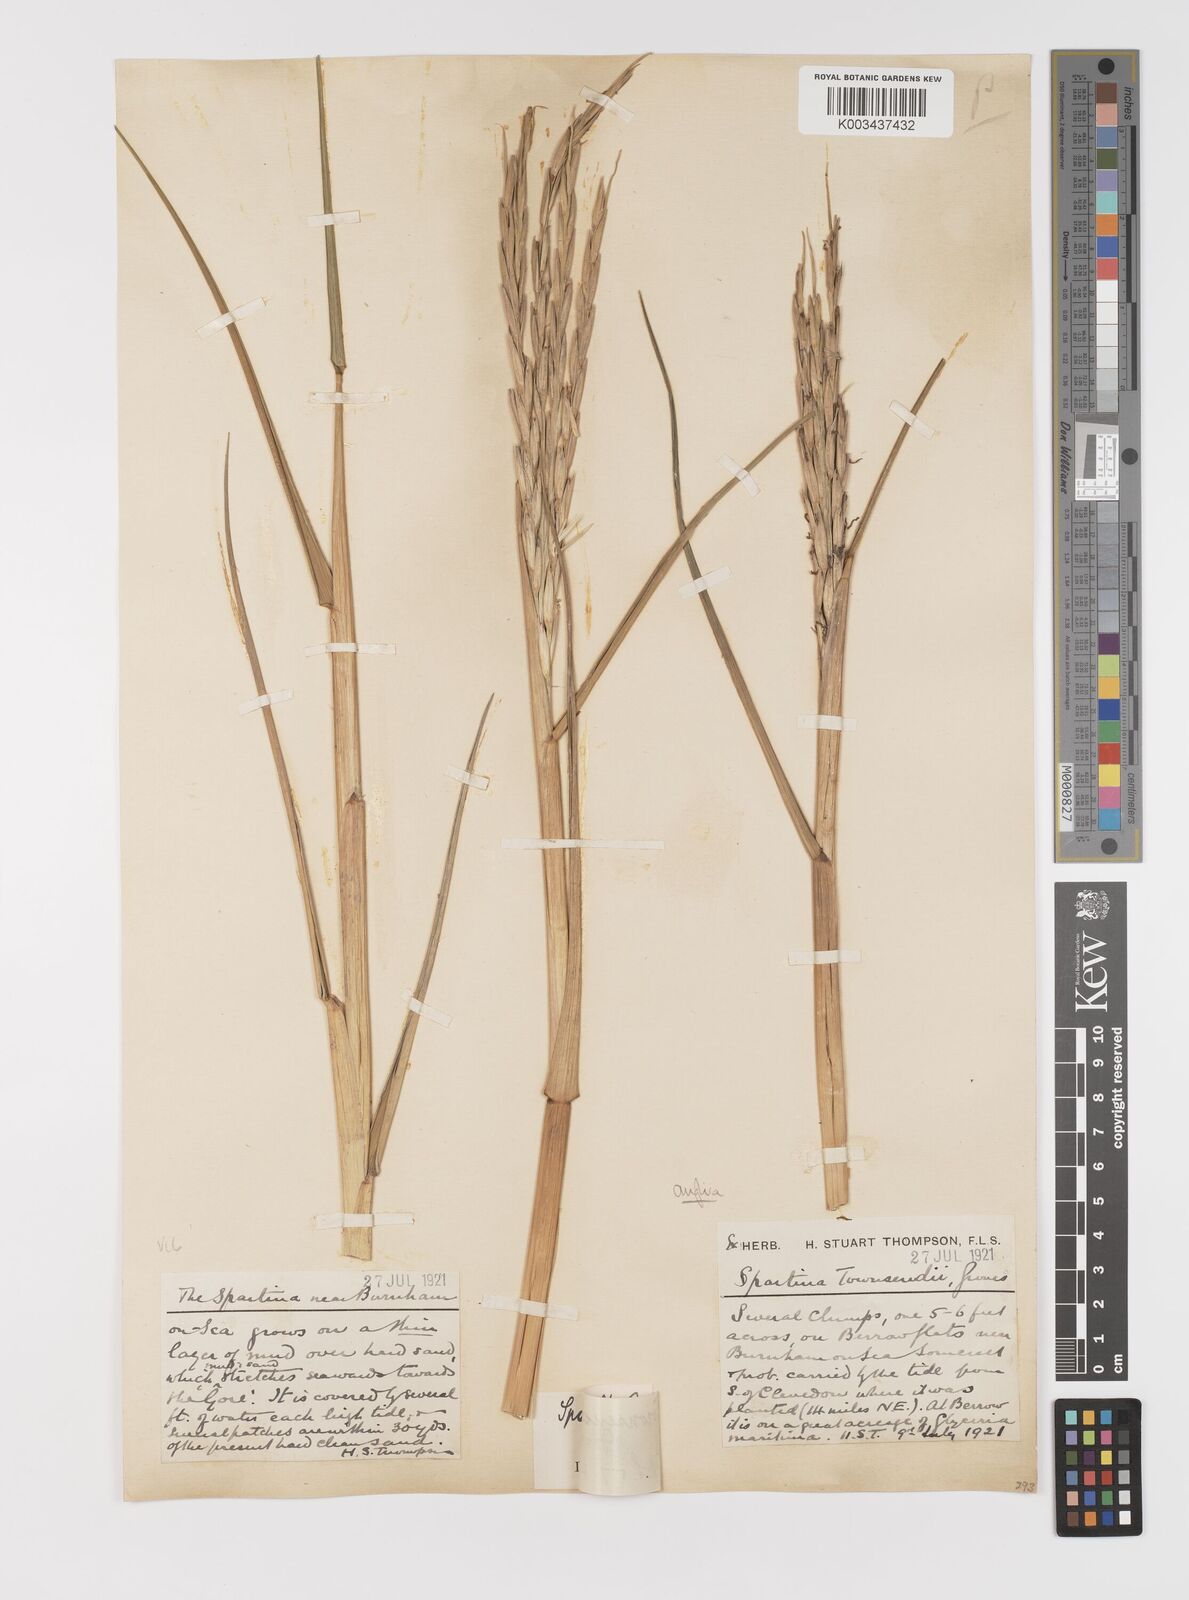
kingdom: Plantae
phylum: Tracheophyta
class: Liliopsida
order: Poales
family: Poaceae
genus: Sporobolus
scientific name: Sporobolus anglicus
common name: English cordgrass
